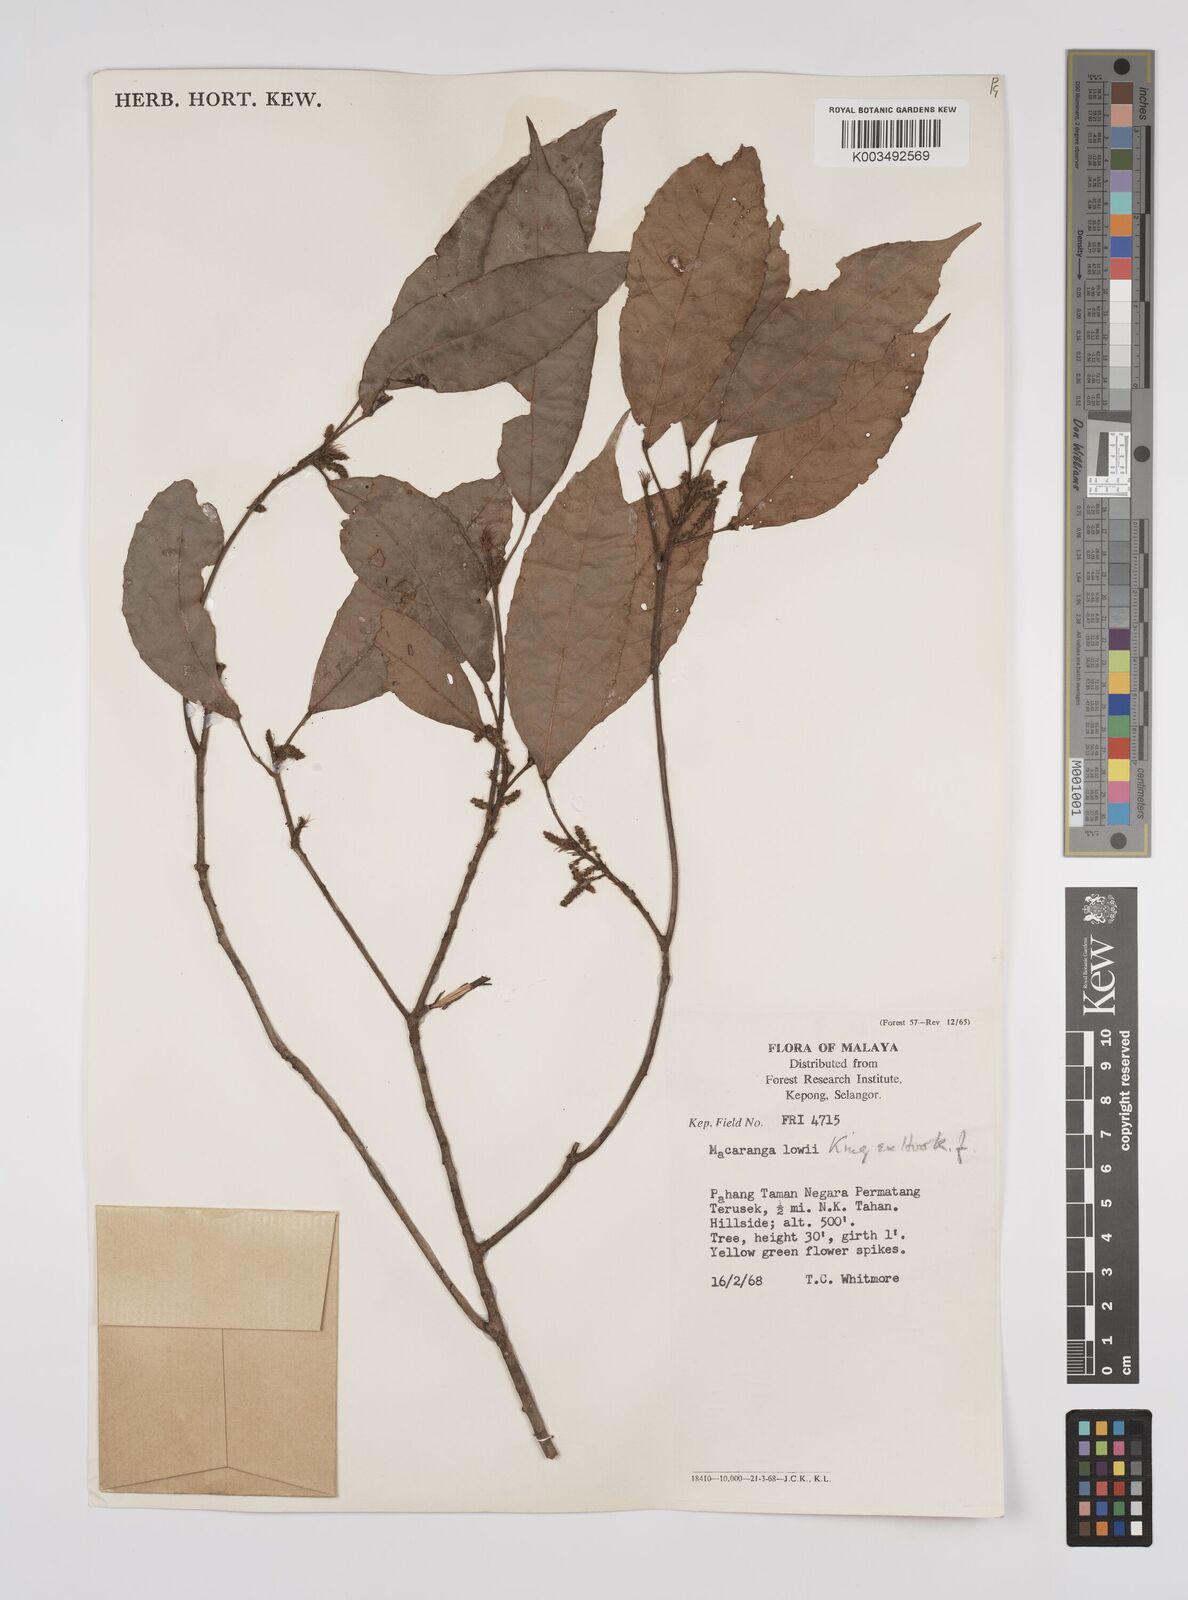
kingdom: Plantae
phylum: Tracheophyta
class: Magnoliopsida
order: Malpighiales
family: Euphorbiaceae
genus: Macaranga
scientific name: Macaranga lowii
